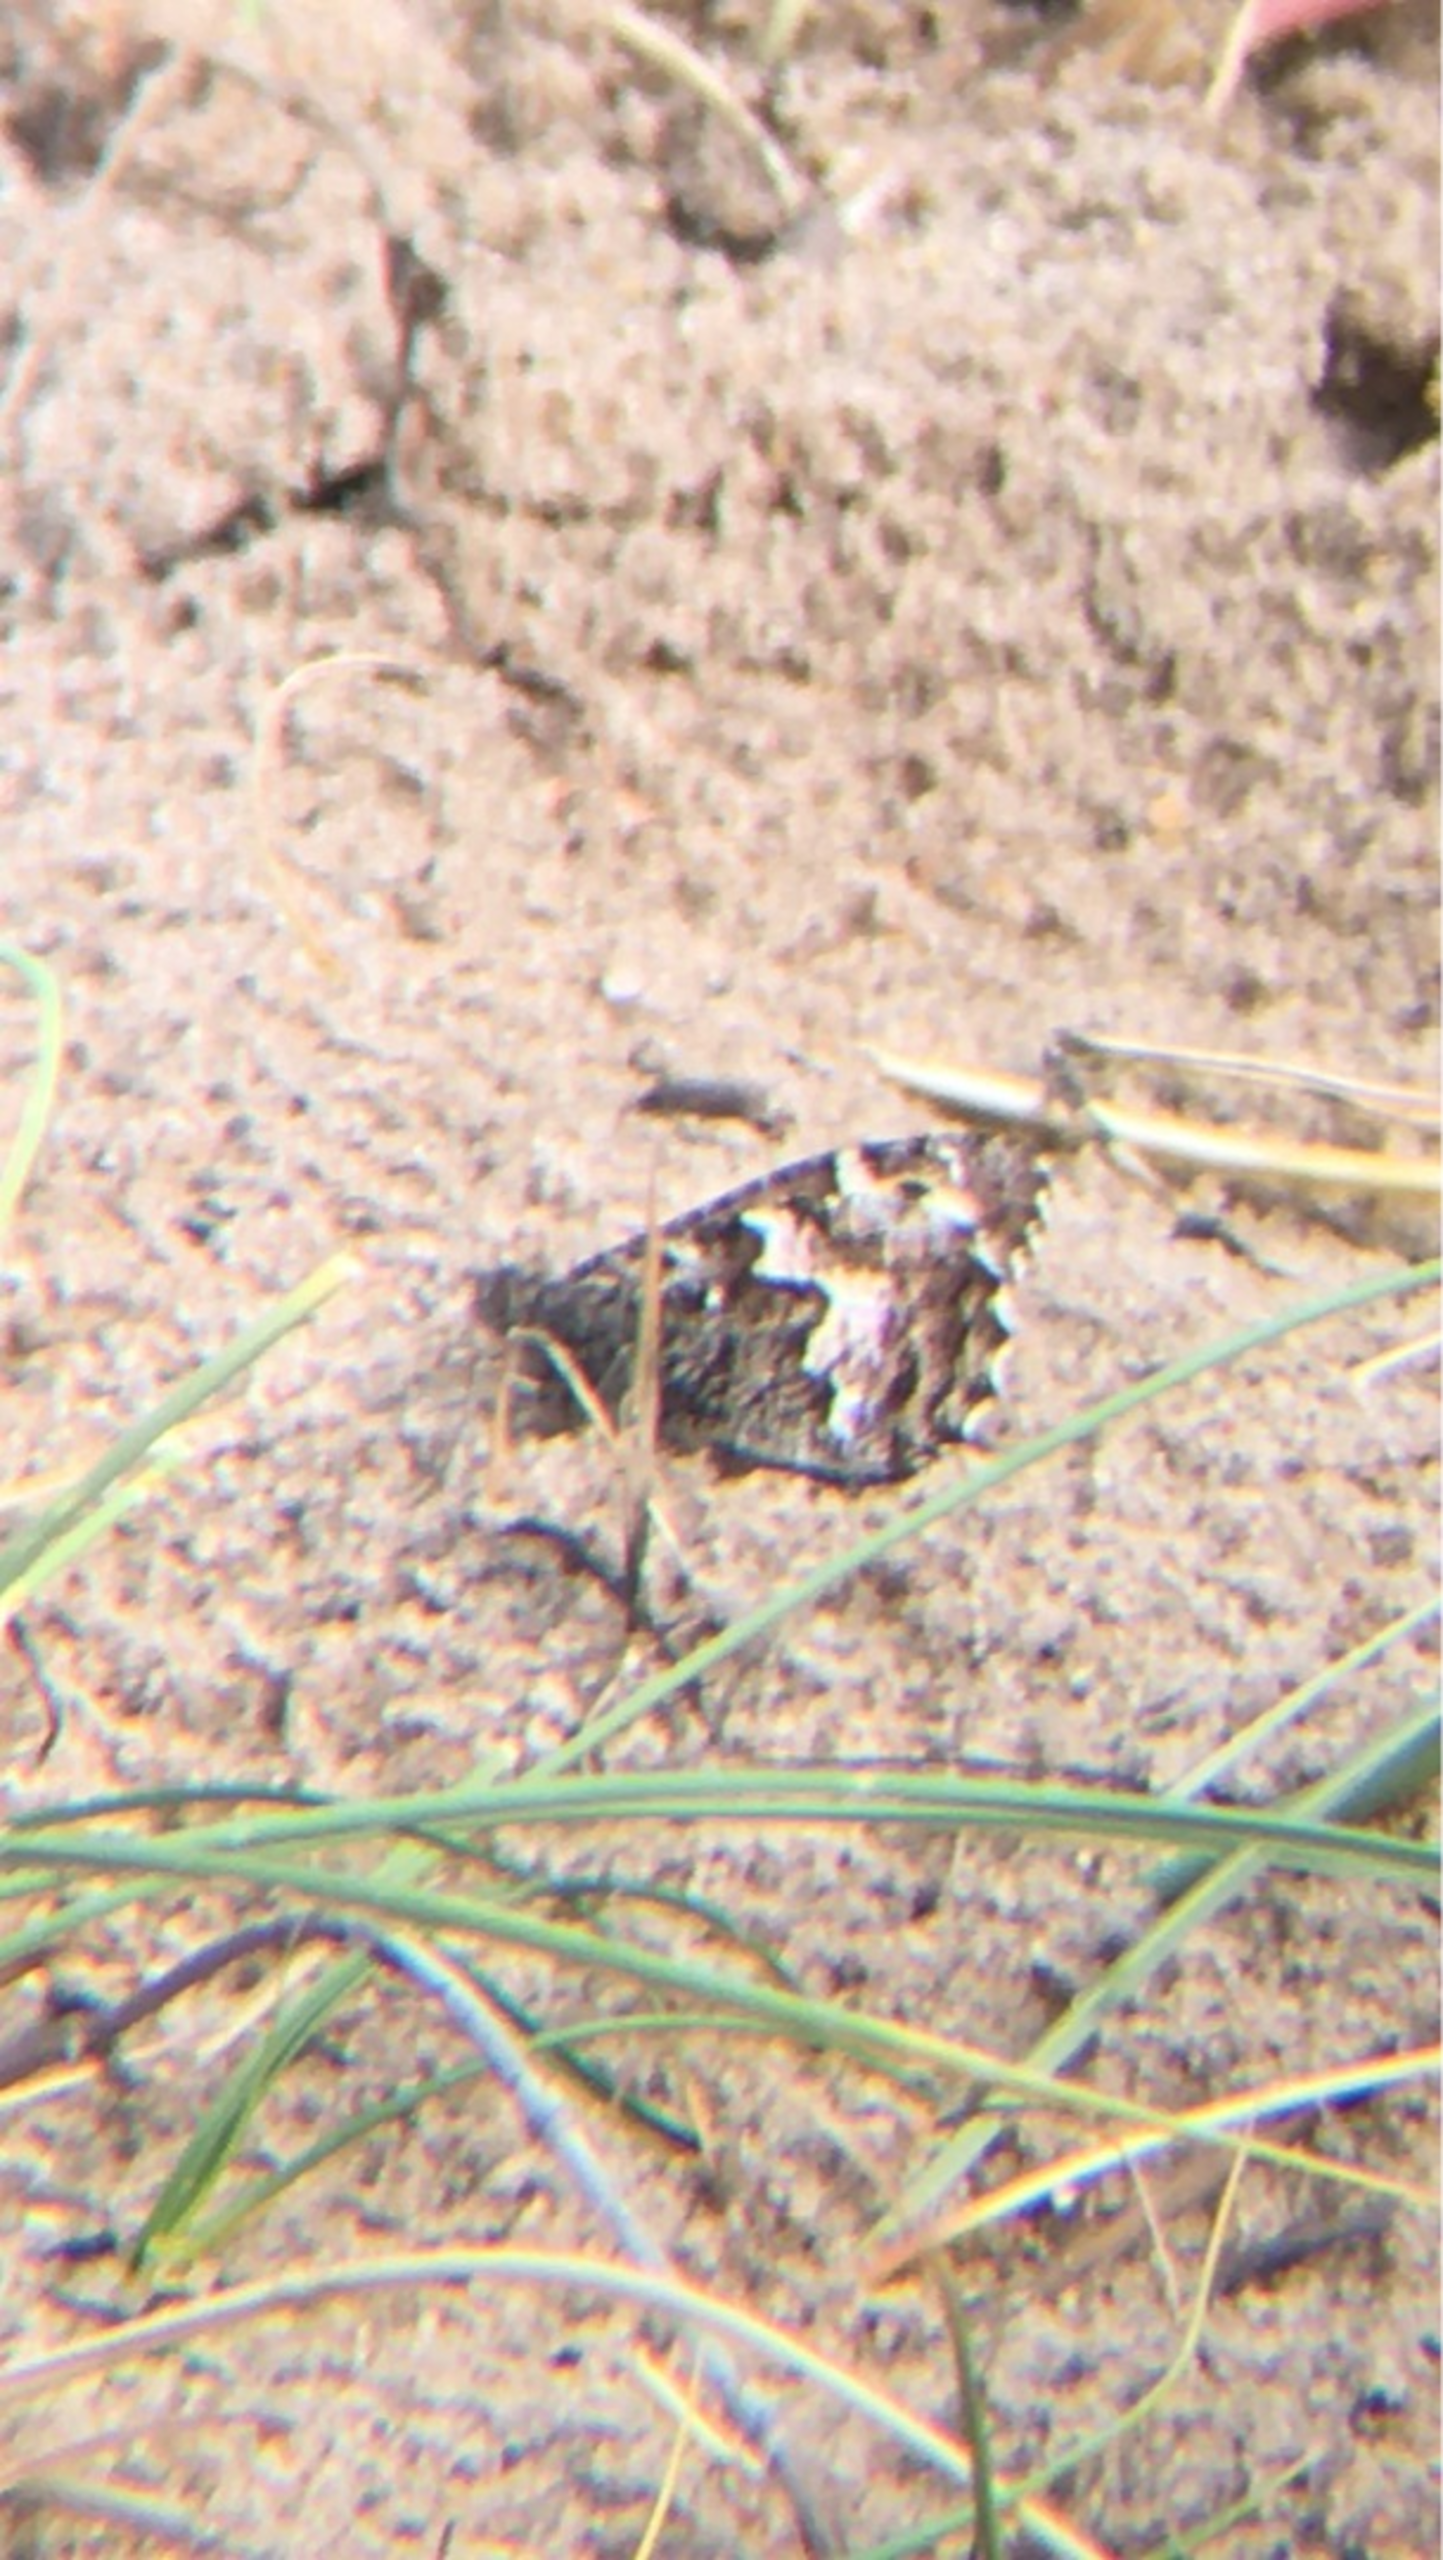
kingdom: Animalia
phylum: Arthropoda
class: Insecta
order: Lepidoptera
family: Nymphalidae
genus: Hipparchia
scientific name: Hipparchia semele
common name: Sandrandøje
